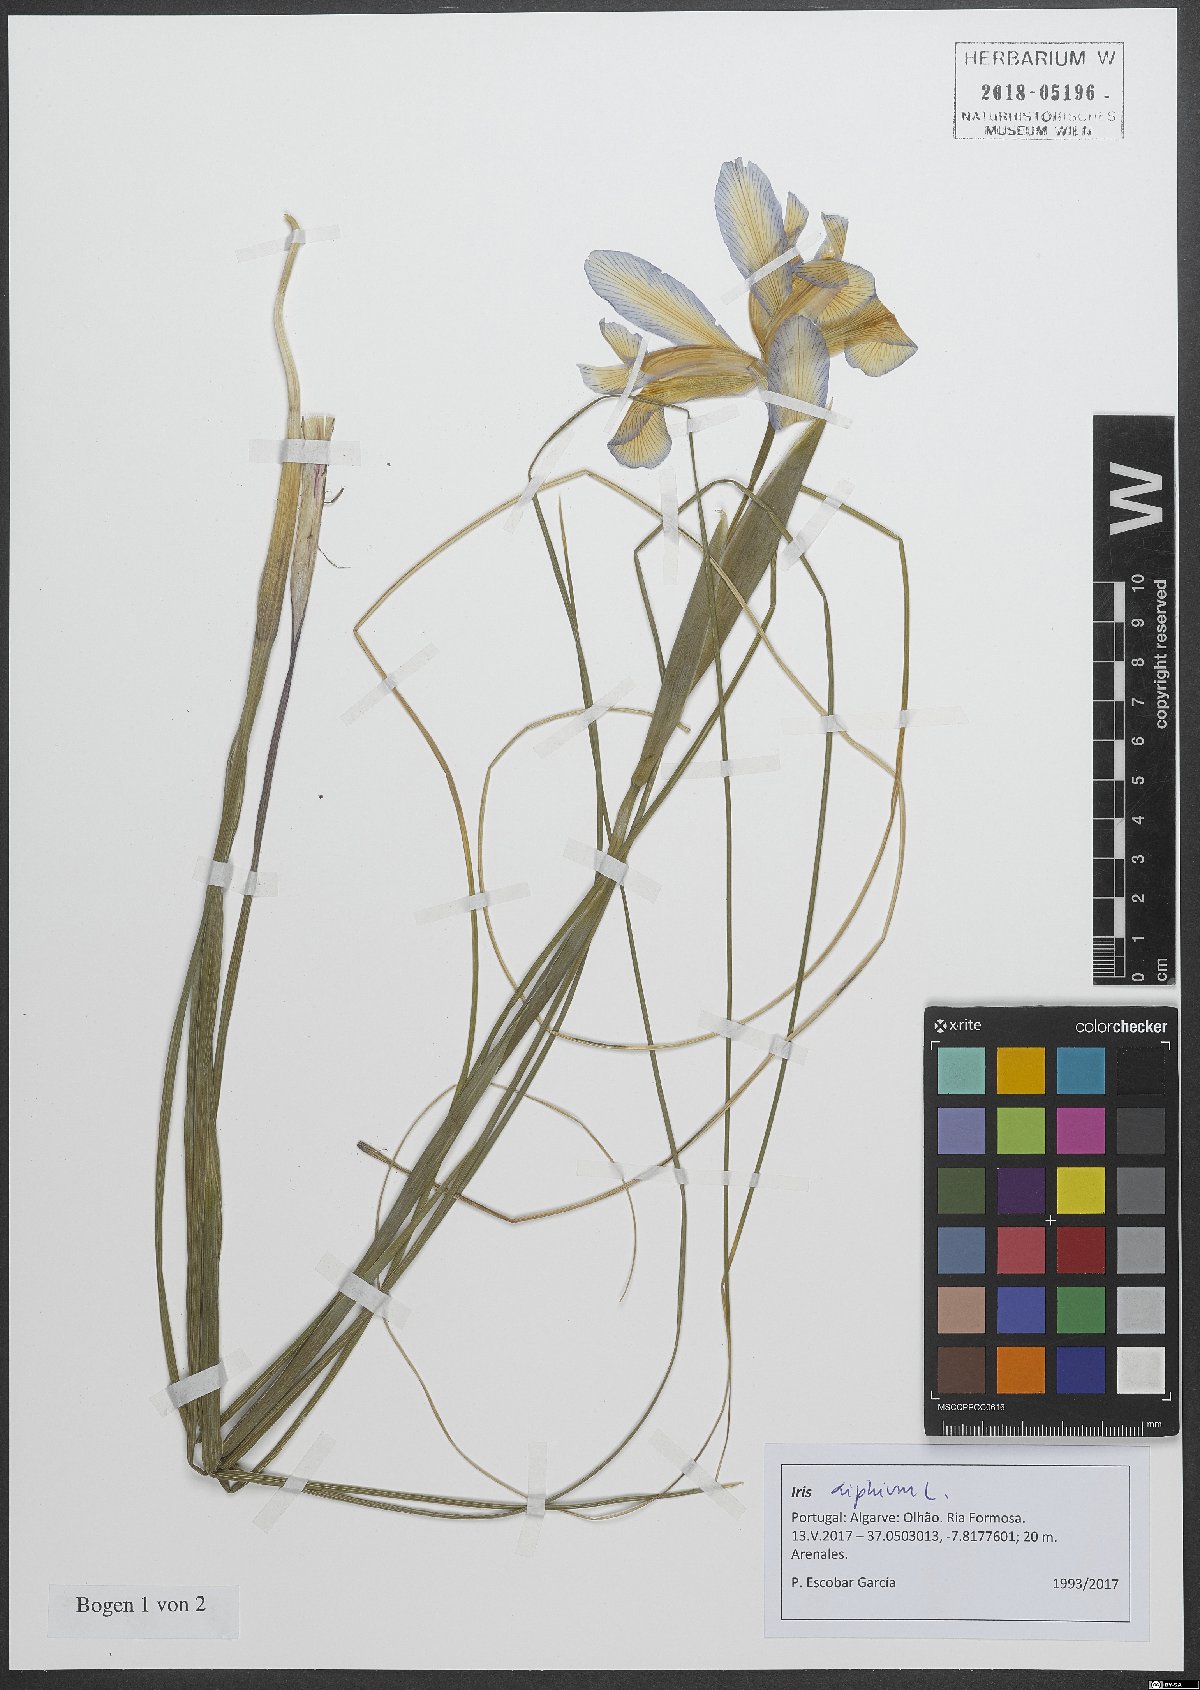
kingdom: Plantae
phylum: Tracheophyta
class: Liliopsida
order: Asparagales
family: Iridaceae
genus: Iris
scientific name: Iris xiphium
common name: Spanish iris
